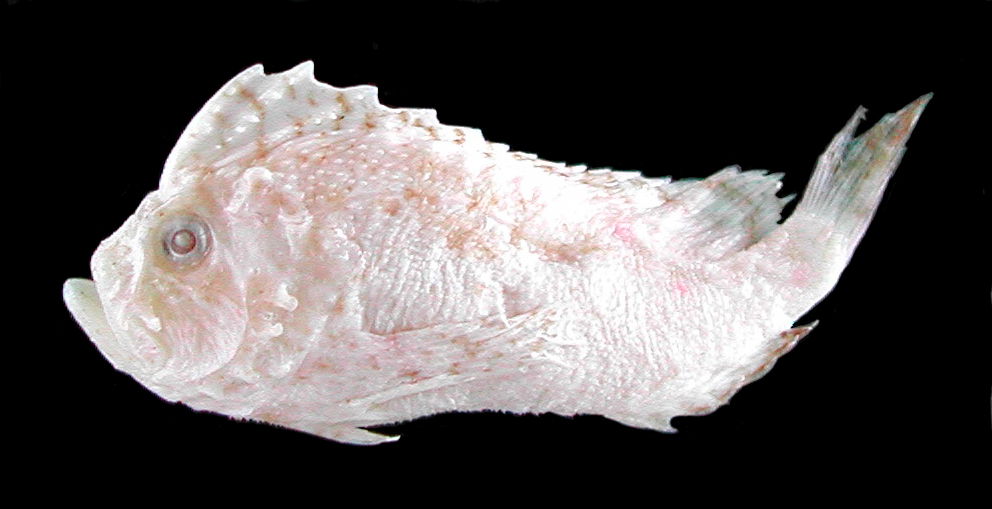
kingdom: Animalia
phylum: Chordata
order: Scorpaeniformes
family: Aploactinidae
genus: Cocotropus
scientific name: Cocotropus roseomaculatus
